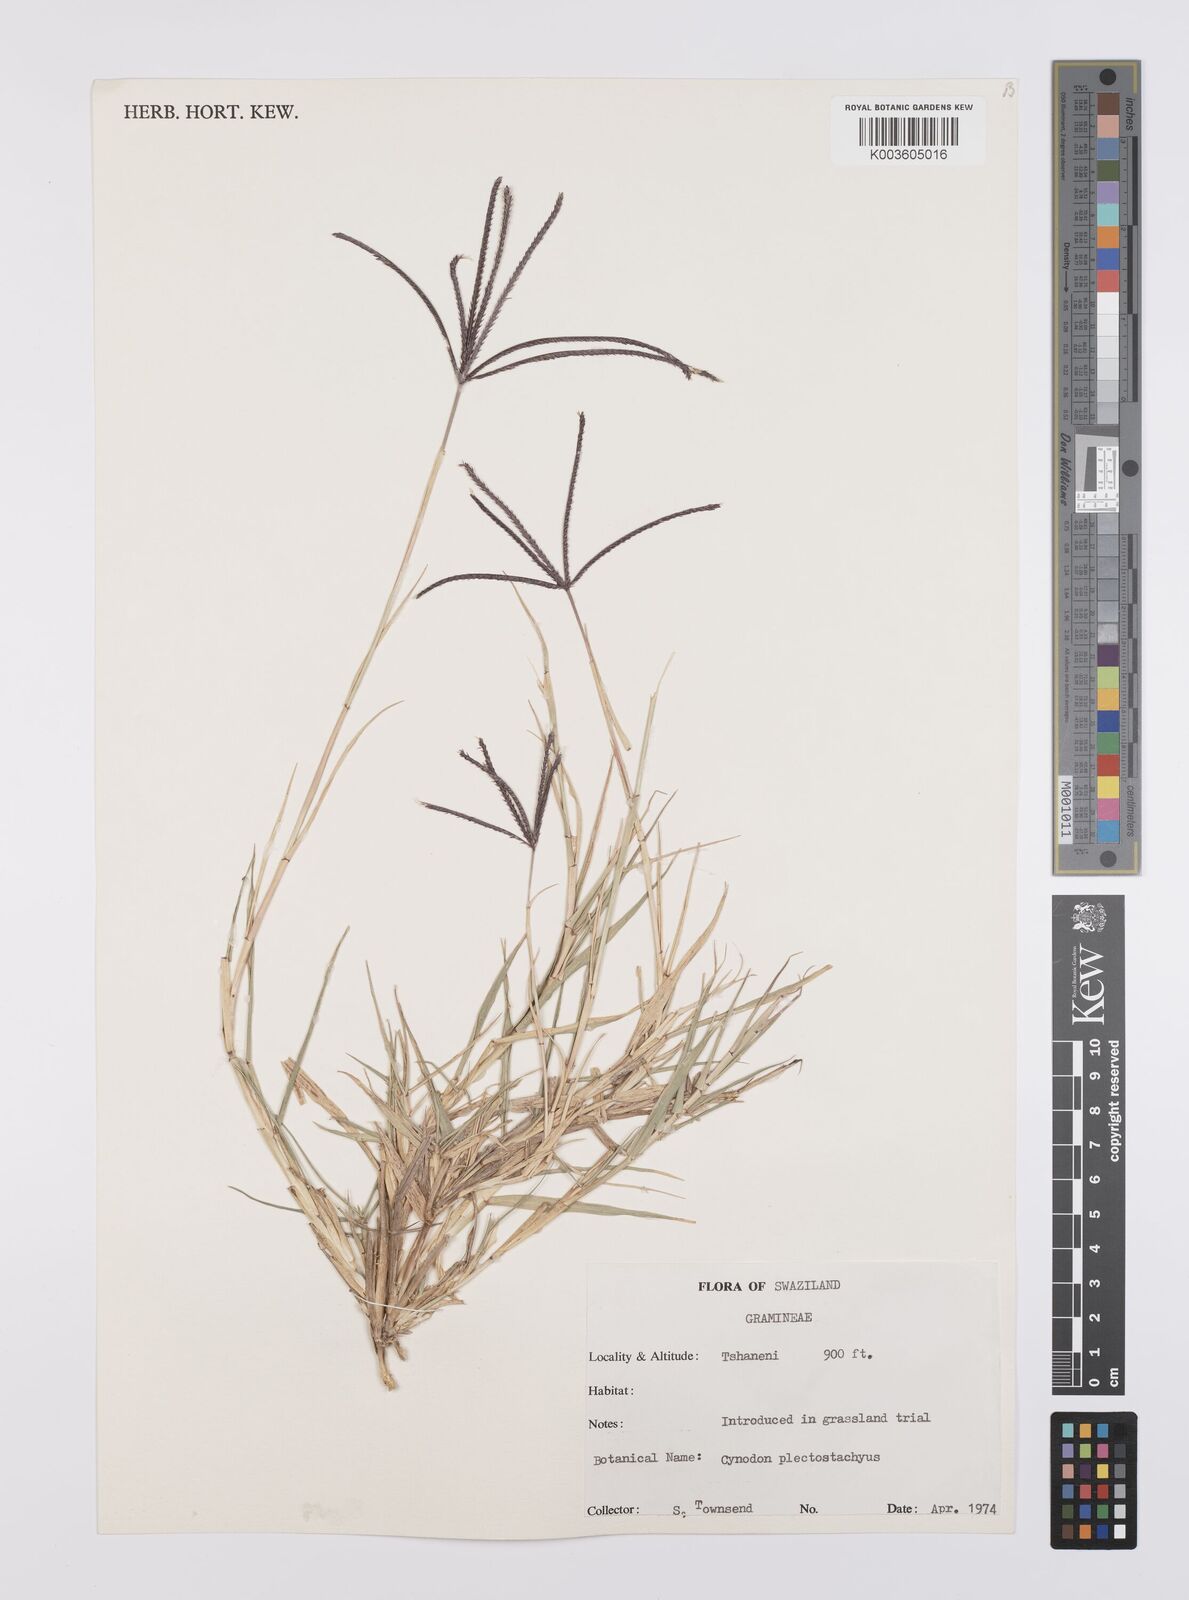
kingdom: Plantae
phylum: Tracheophyta
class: Liliopsida
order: Poales
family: Poaceae
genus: Cynodon
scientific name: Cynodon nlemfuensis
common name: African bermudagrass
